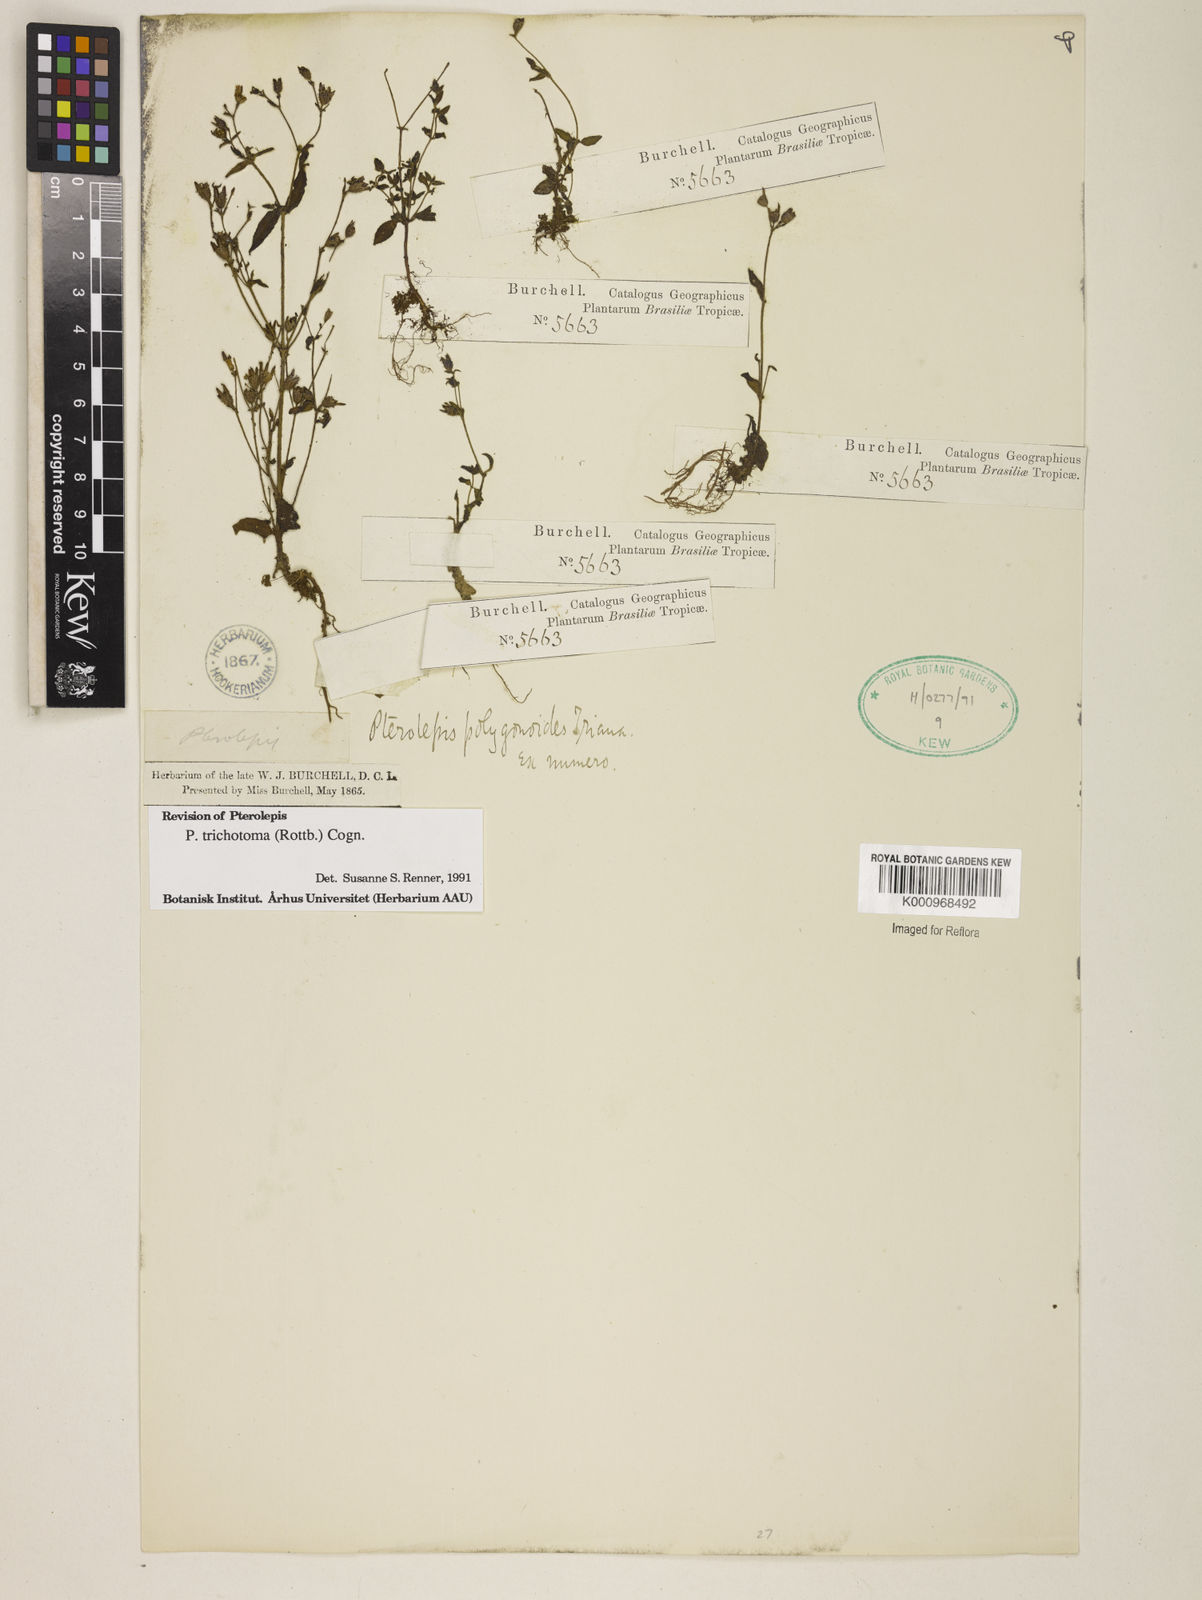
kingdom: Plantae
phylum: Tracheophyta
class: Magnoliopsida
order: Myrtales
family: Melastomataceae
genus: Pterolepis
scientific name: Pterolepis trichotoma
